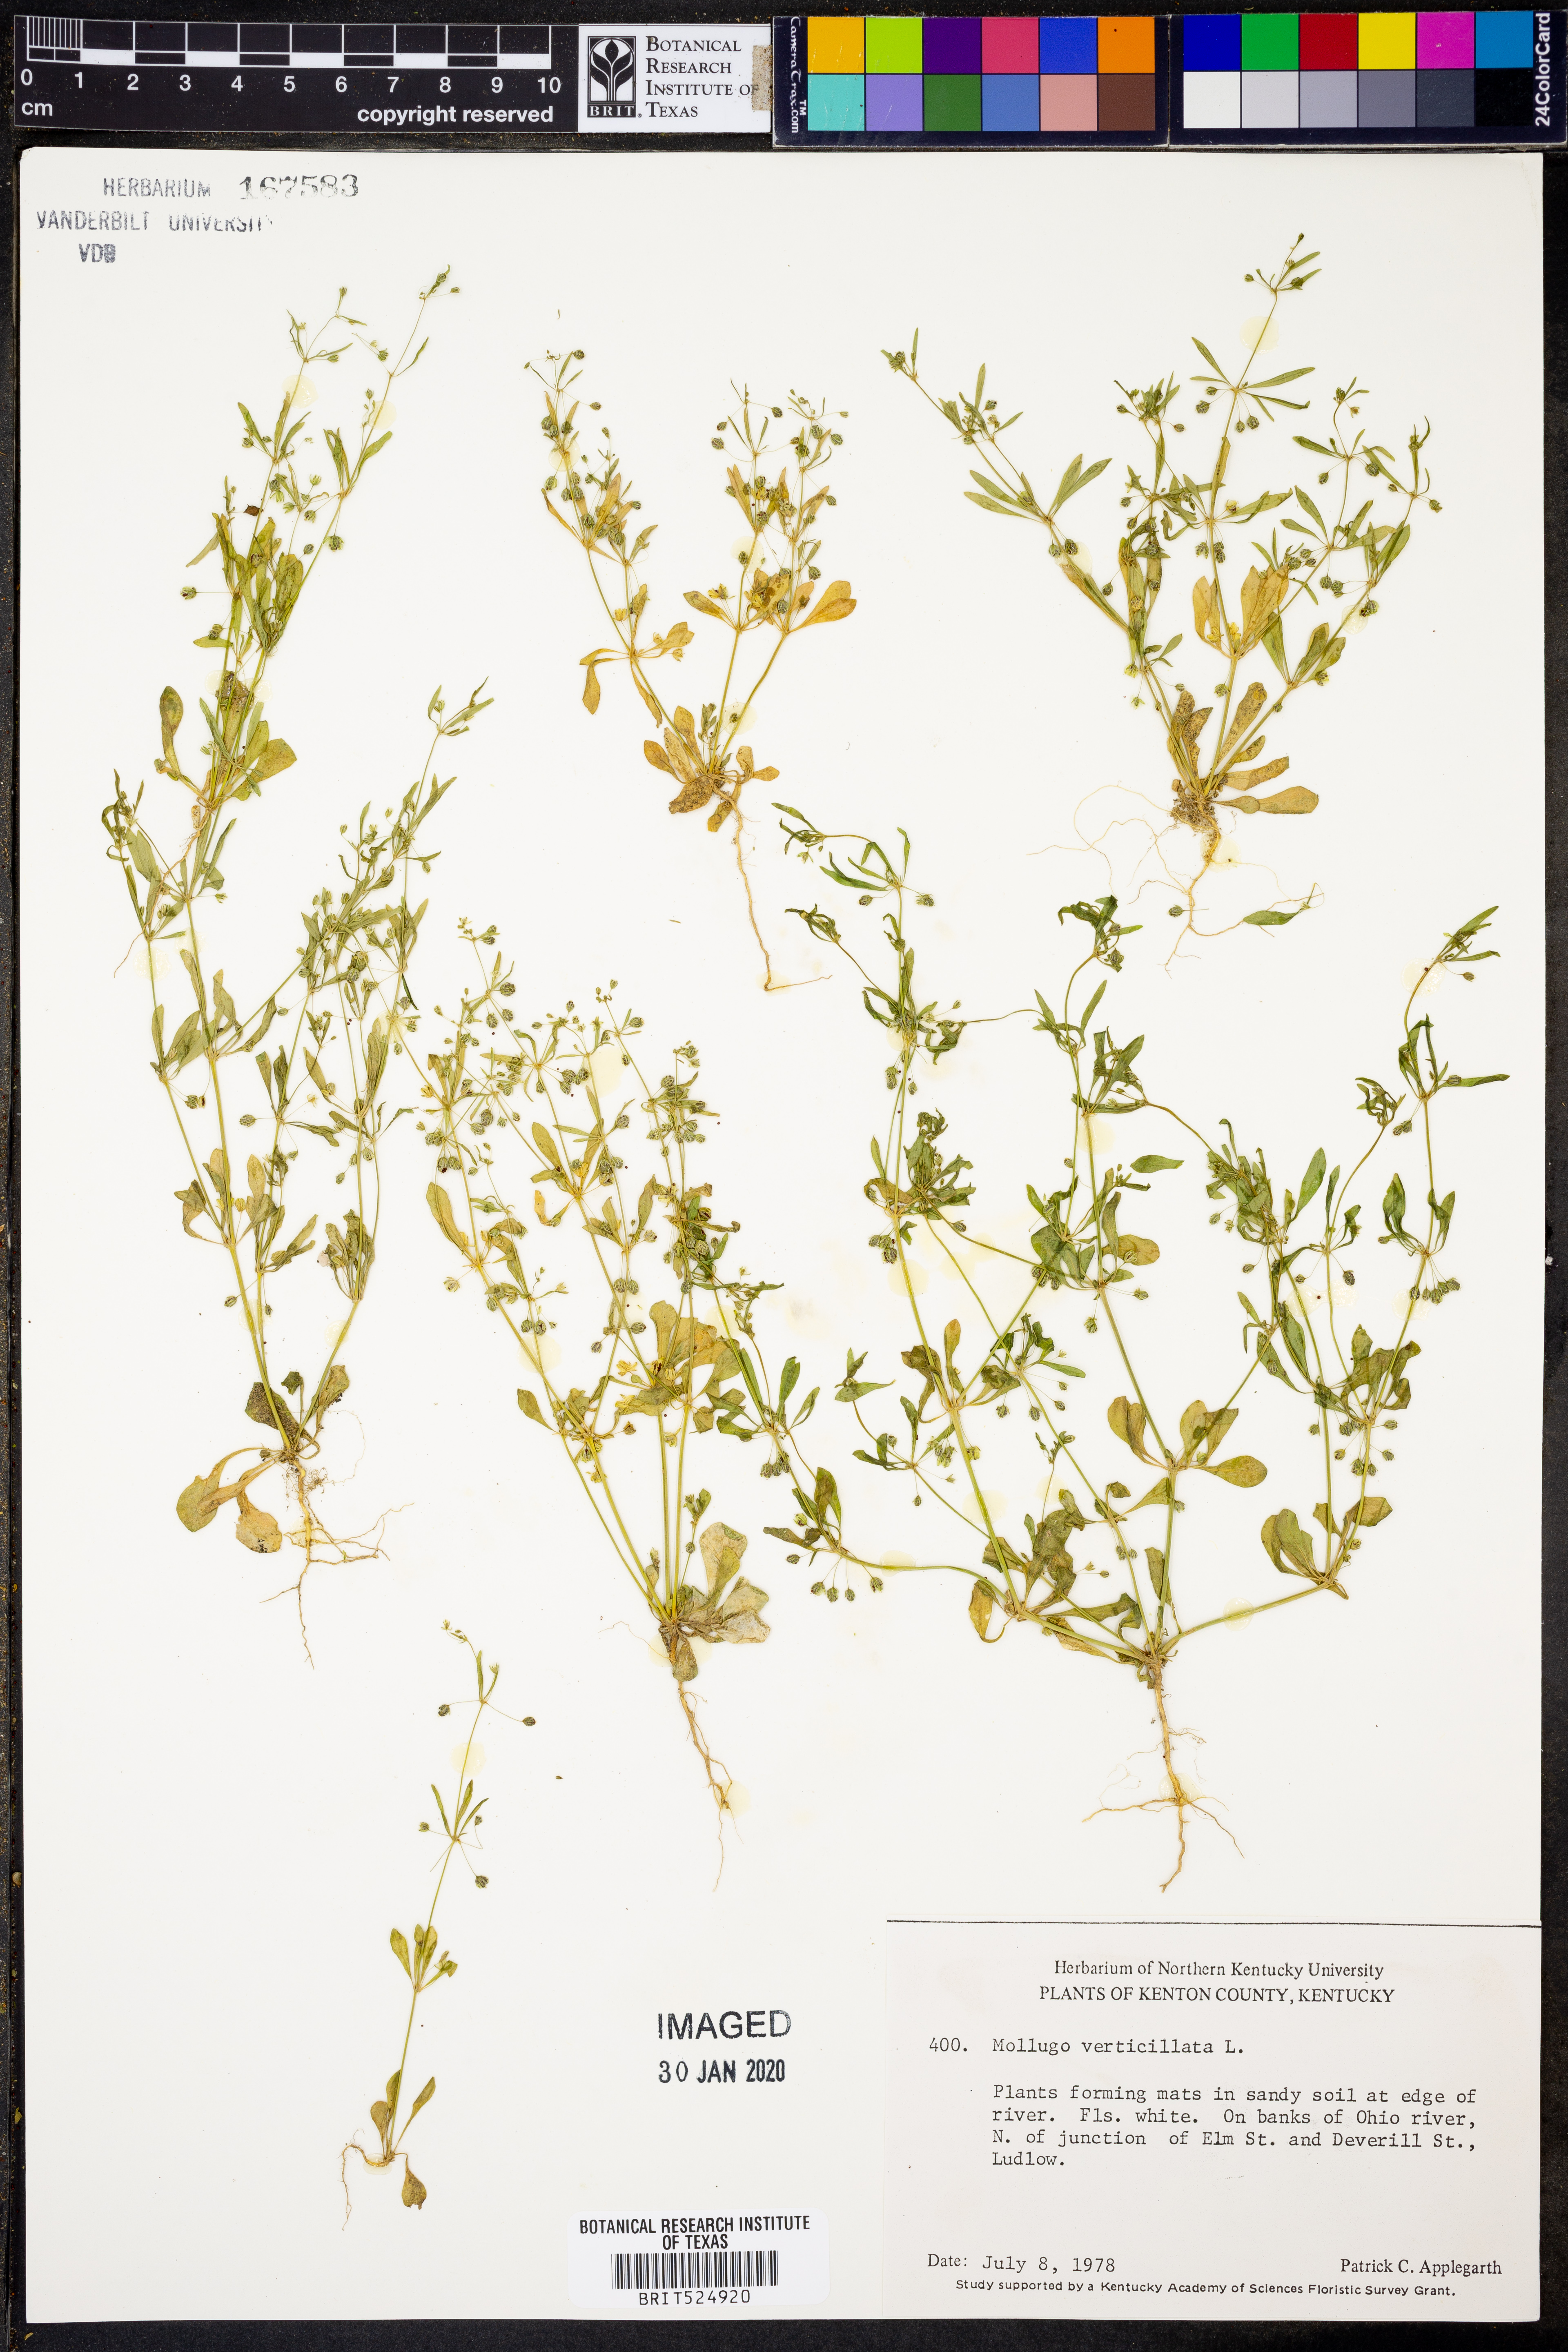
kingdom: Plantae
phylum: Tracheophyta
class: Magnoliopsida
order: Caryophyllales
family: Molluginaceae
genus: Mollugo
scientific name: Mollugo verticillata
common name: Green carpetweed
